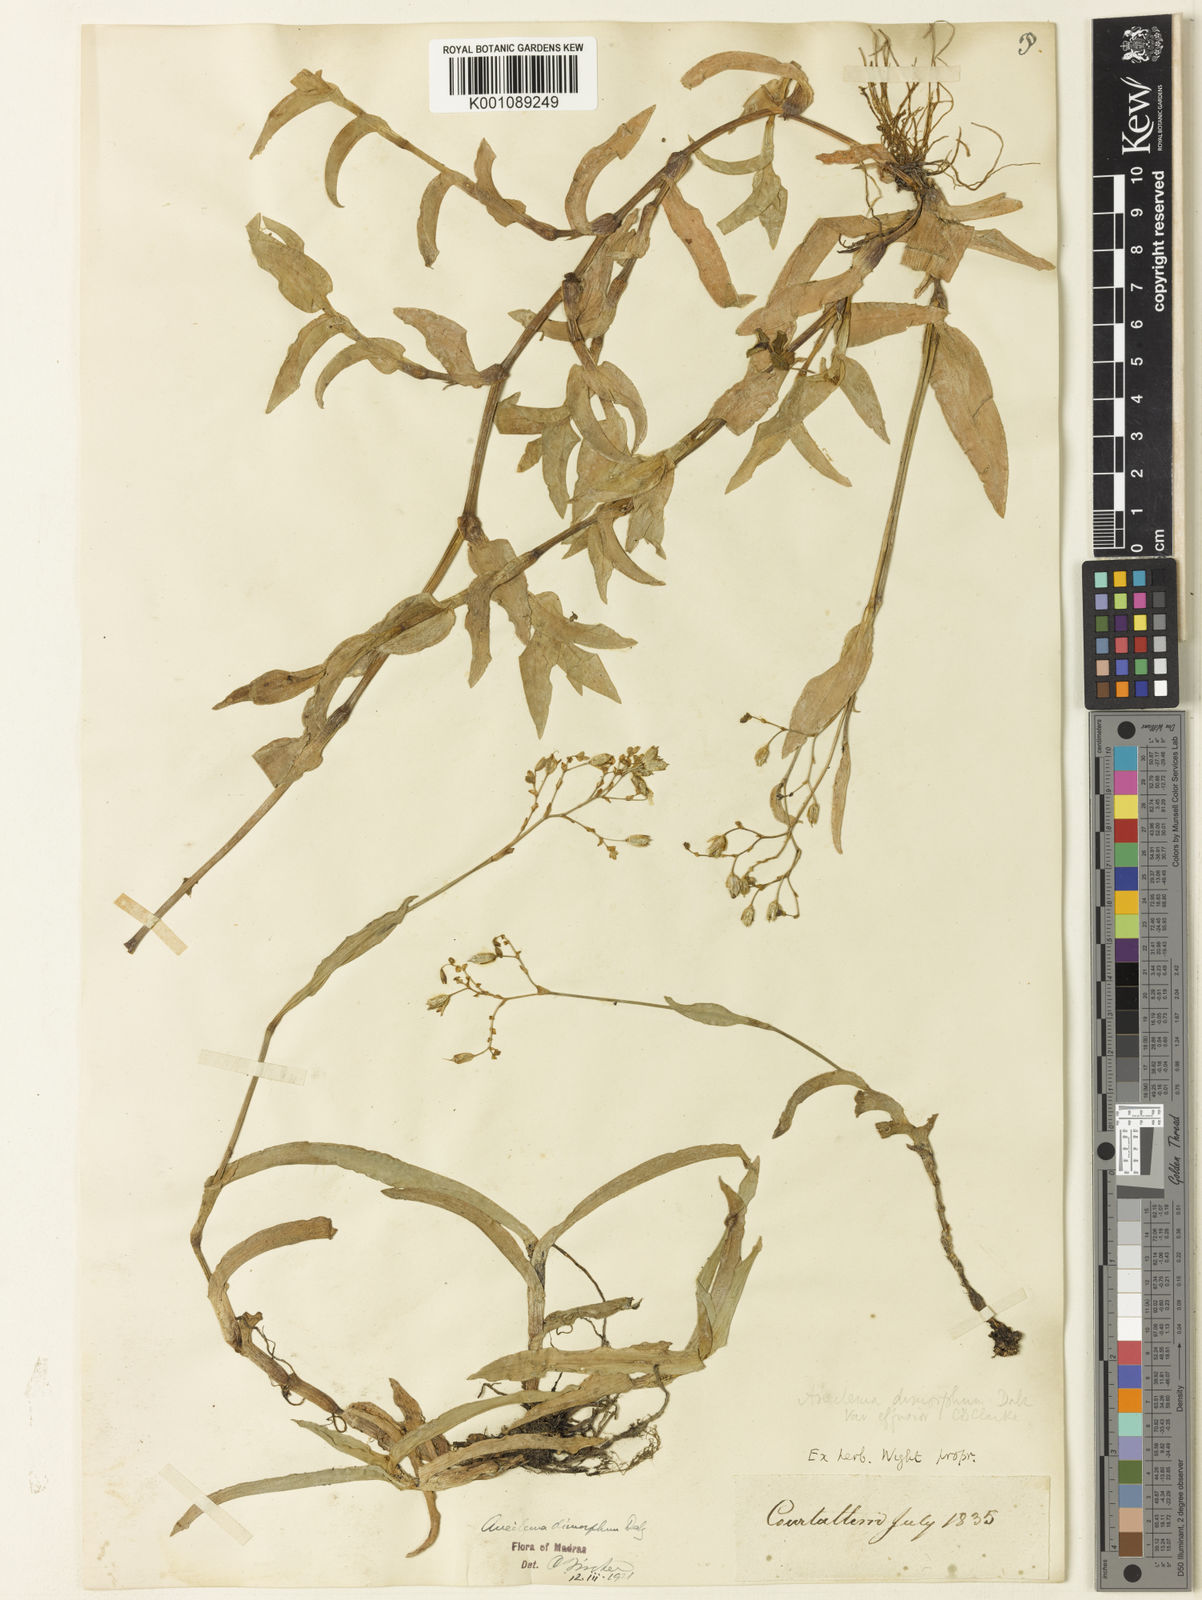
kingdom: Plantae
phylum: Tracheophyta
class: Liliopsida
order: Commelinales
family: Commelinaceae
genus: Murdannia
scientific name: Murdannia
